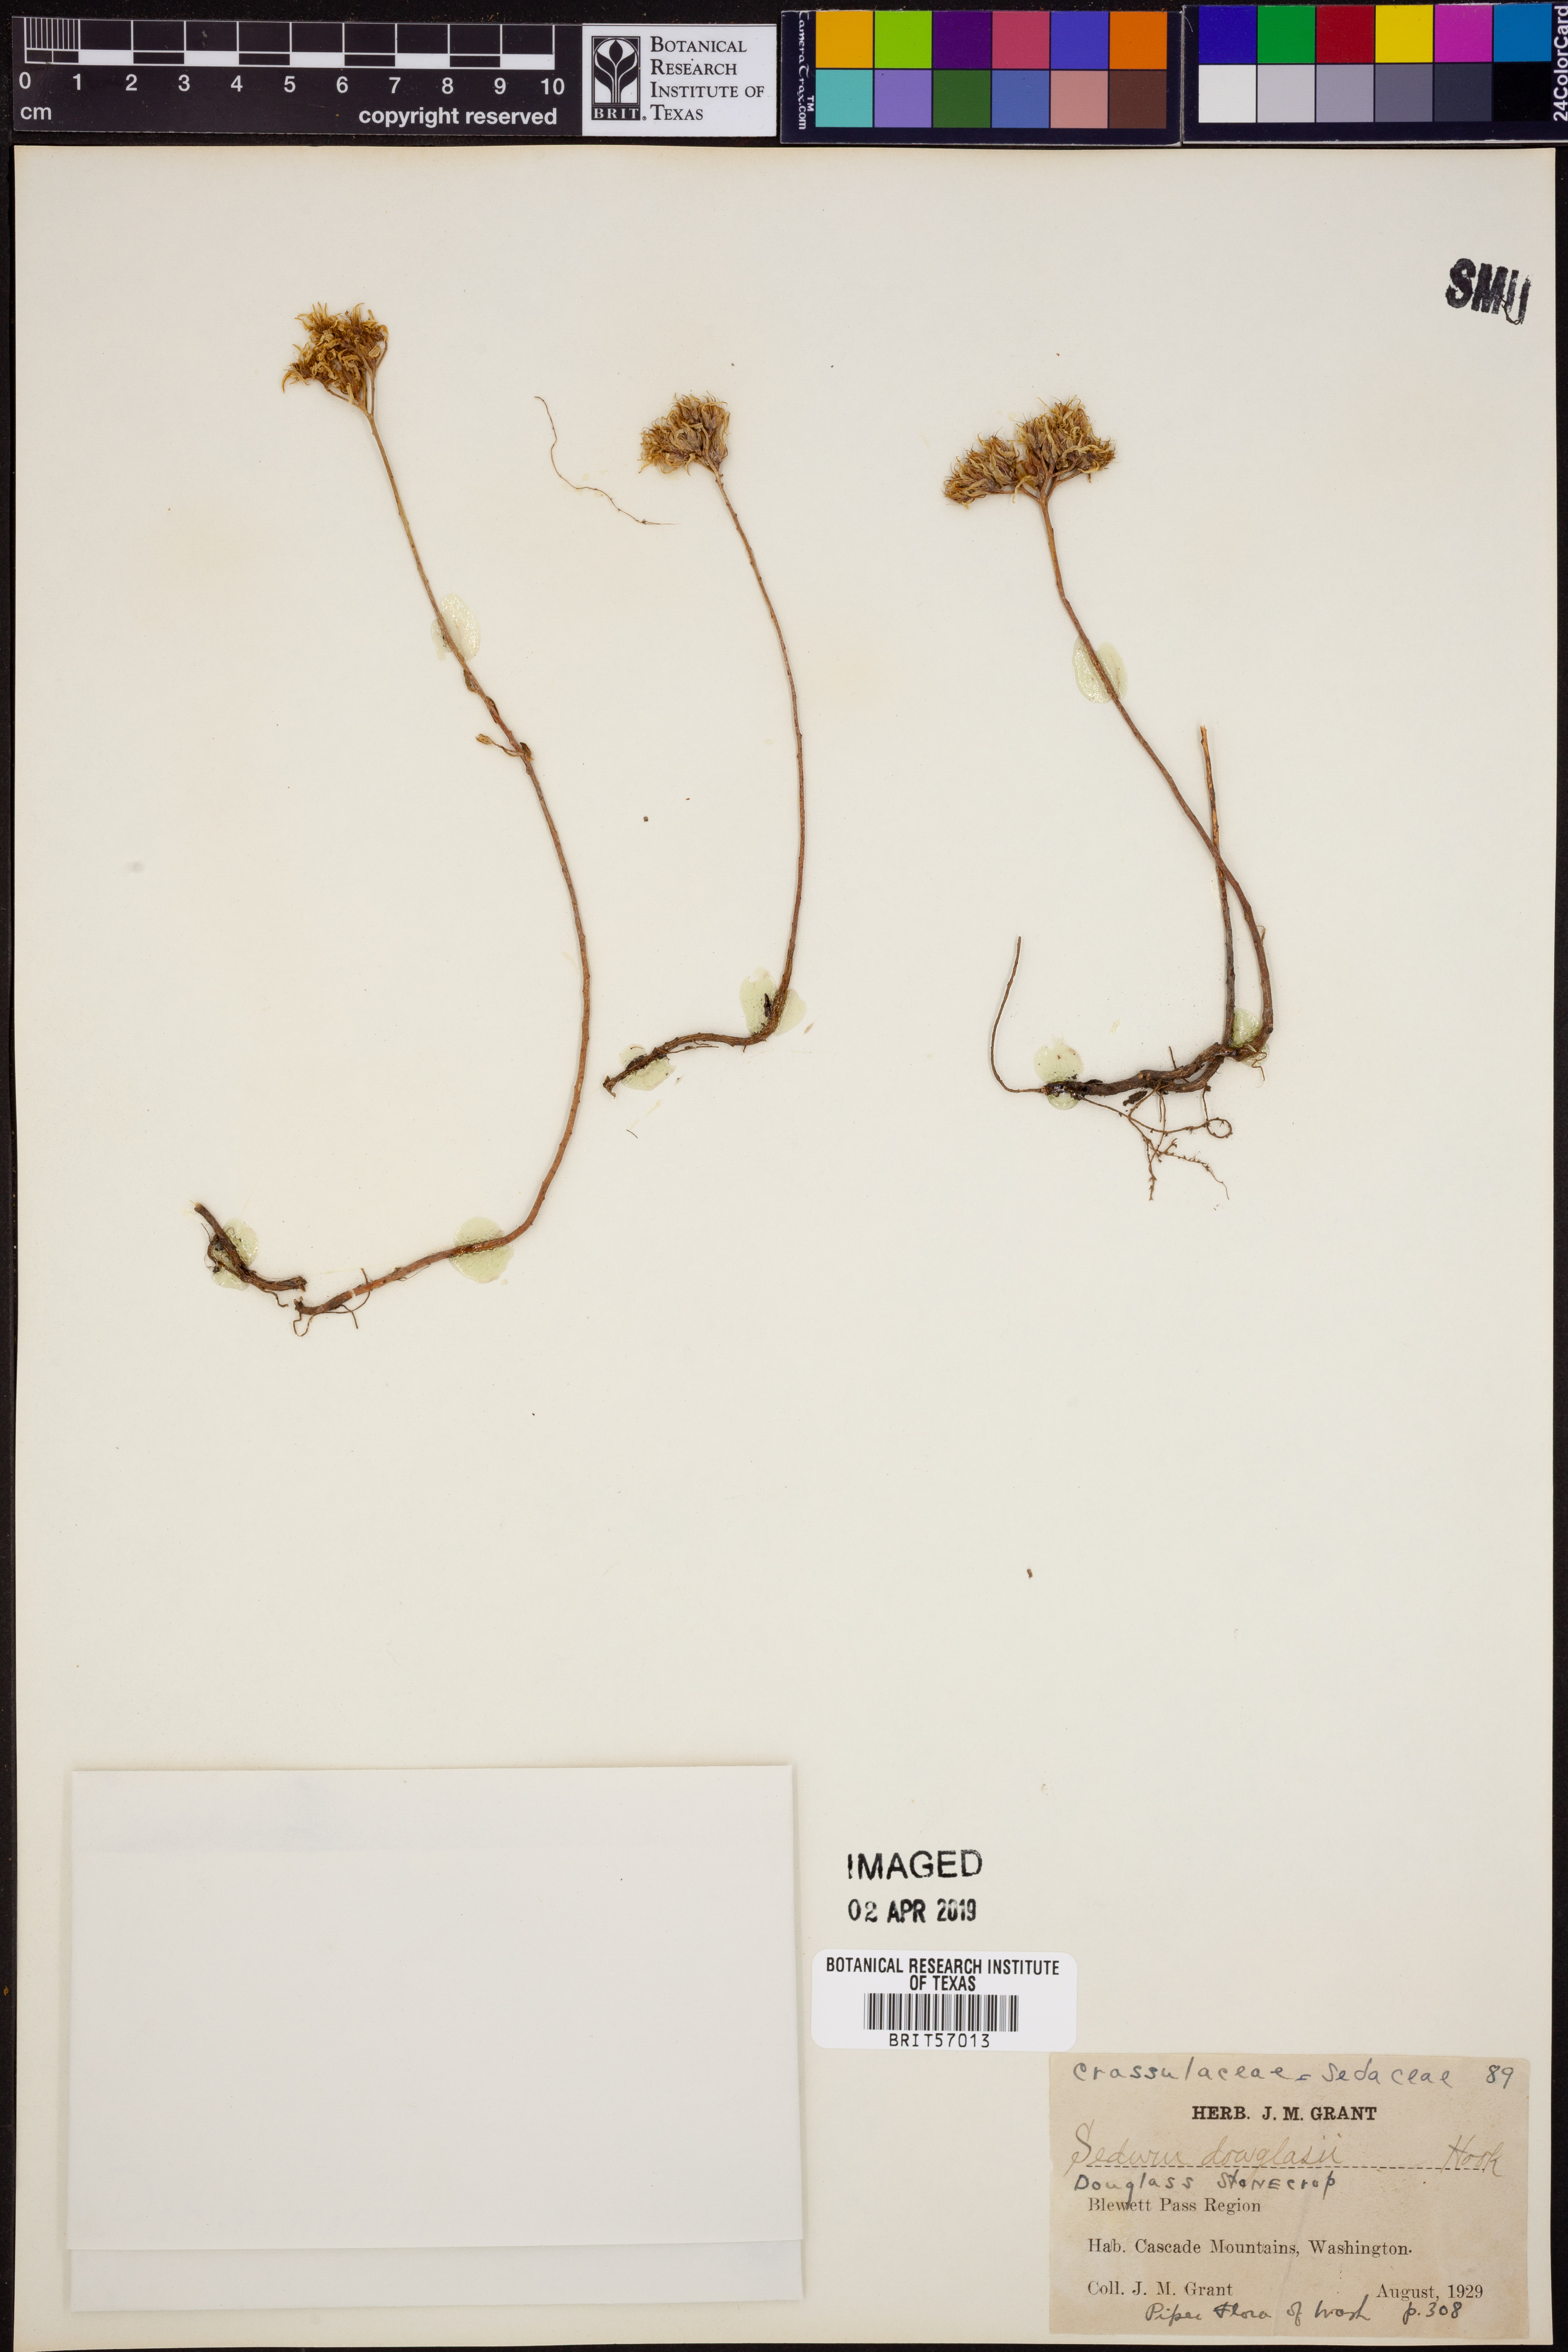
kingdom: Plantae
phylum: Tracheophyta
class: Magnoliopsida
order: Saxifragales
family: Crassulaceae
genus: Sedum
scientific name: Sedum stenopetalum
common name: Narrow-petaled stonecrop
